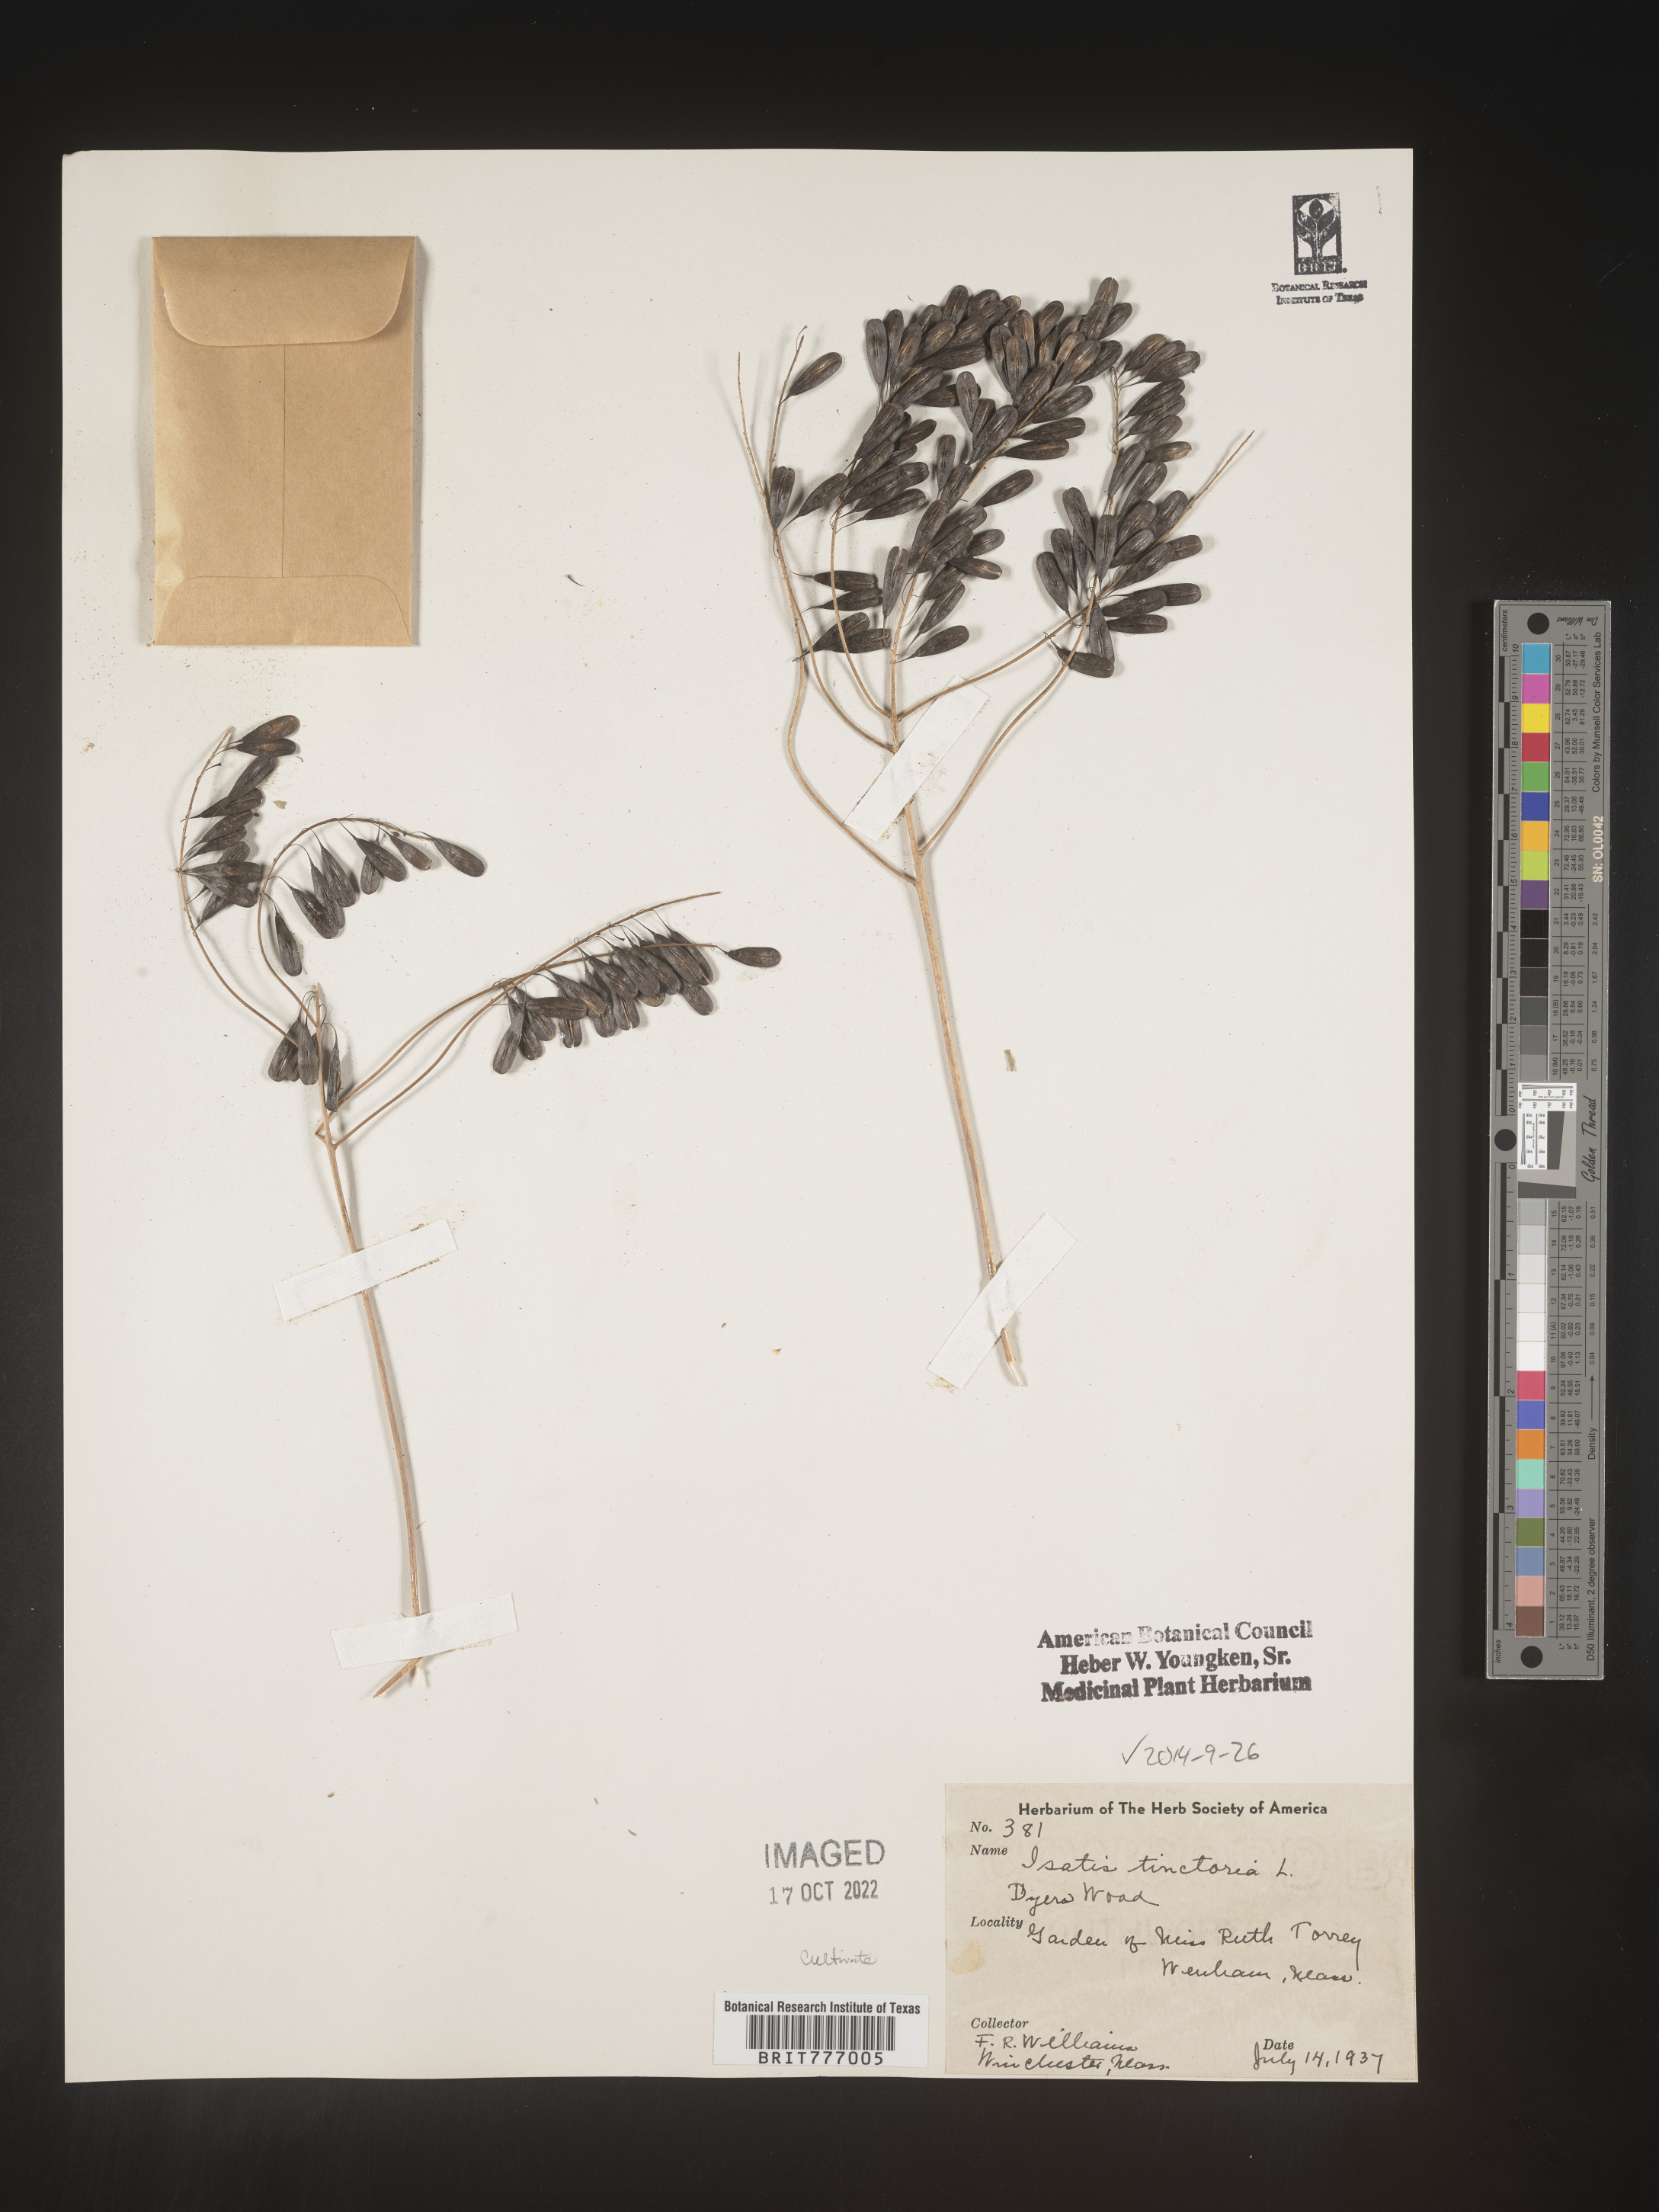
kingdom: Plantae
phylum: Tracheophyta
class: Magnoliopsida
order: Brassicales
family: Brassicaceae
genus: Isatis
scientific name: Isatis
